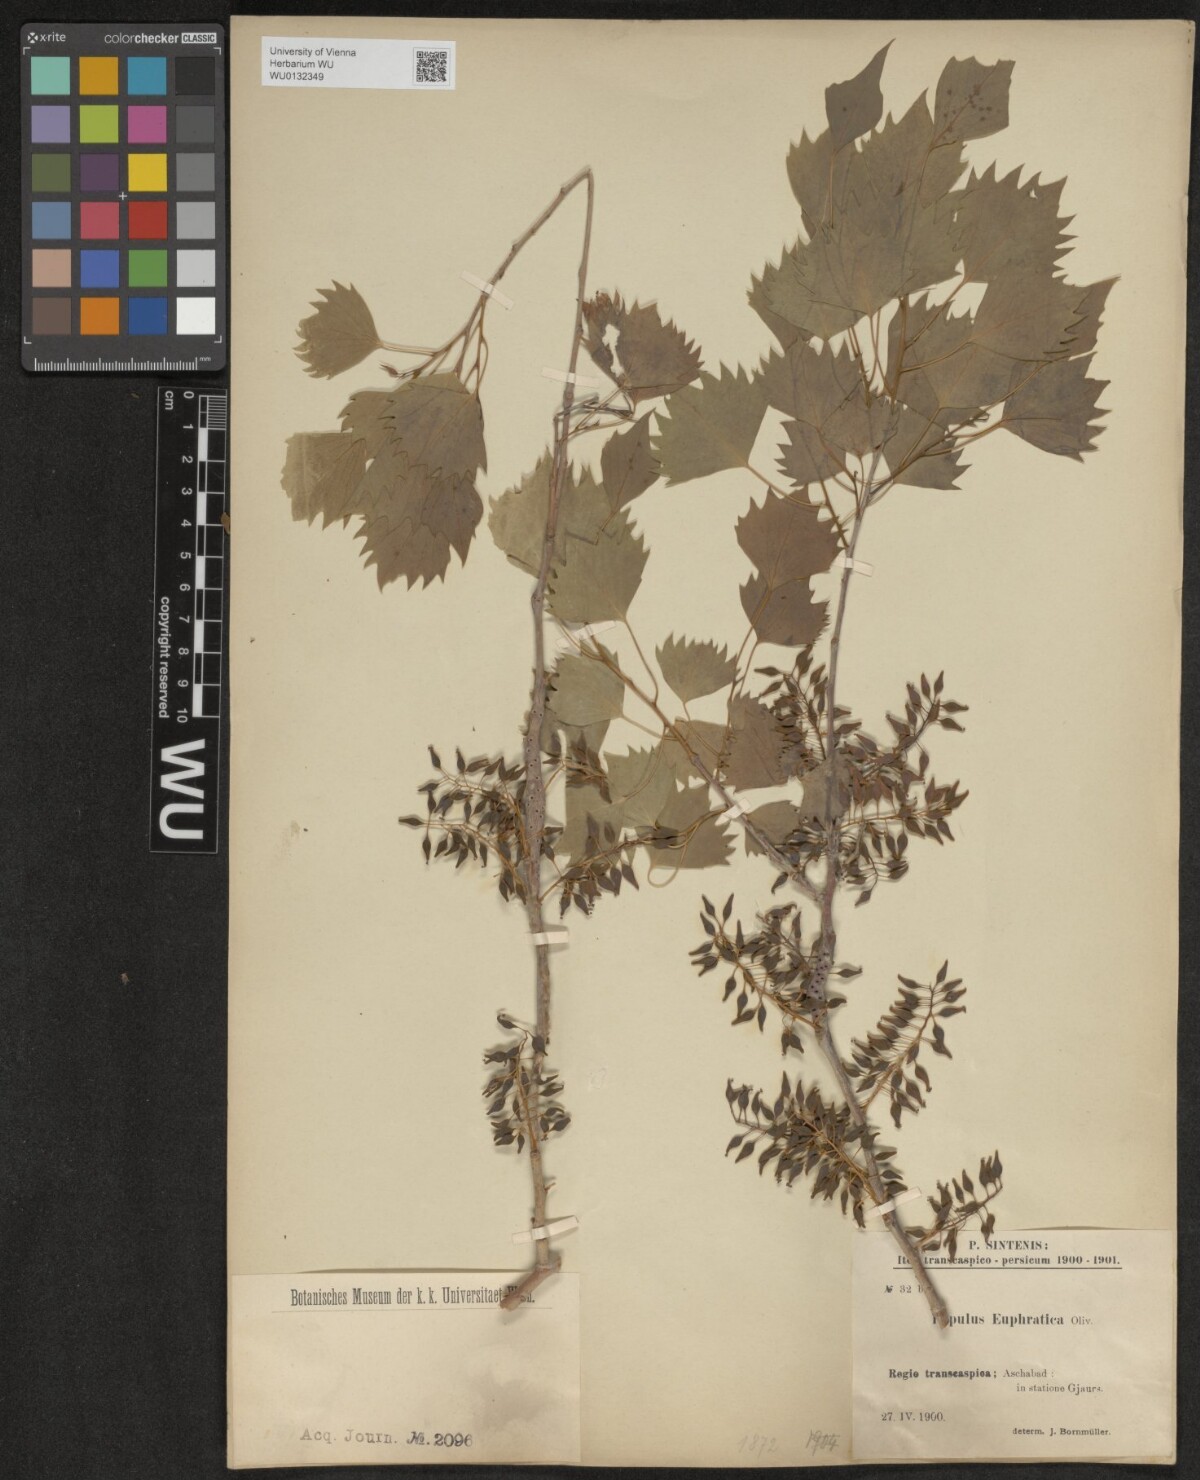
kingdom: Plantae
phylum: Tracheophyta
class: Magnoliopsida
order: Malpighiales
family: Salicaceae
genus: Populus
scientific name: Populus euphratica
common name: Euphrates poplar
